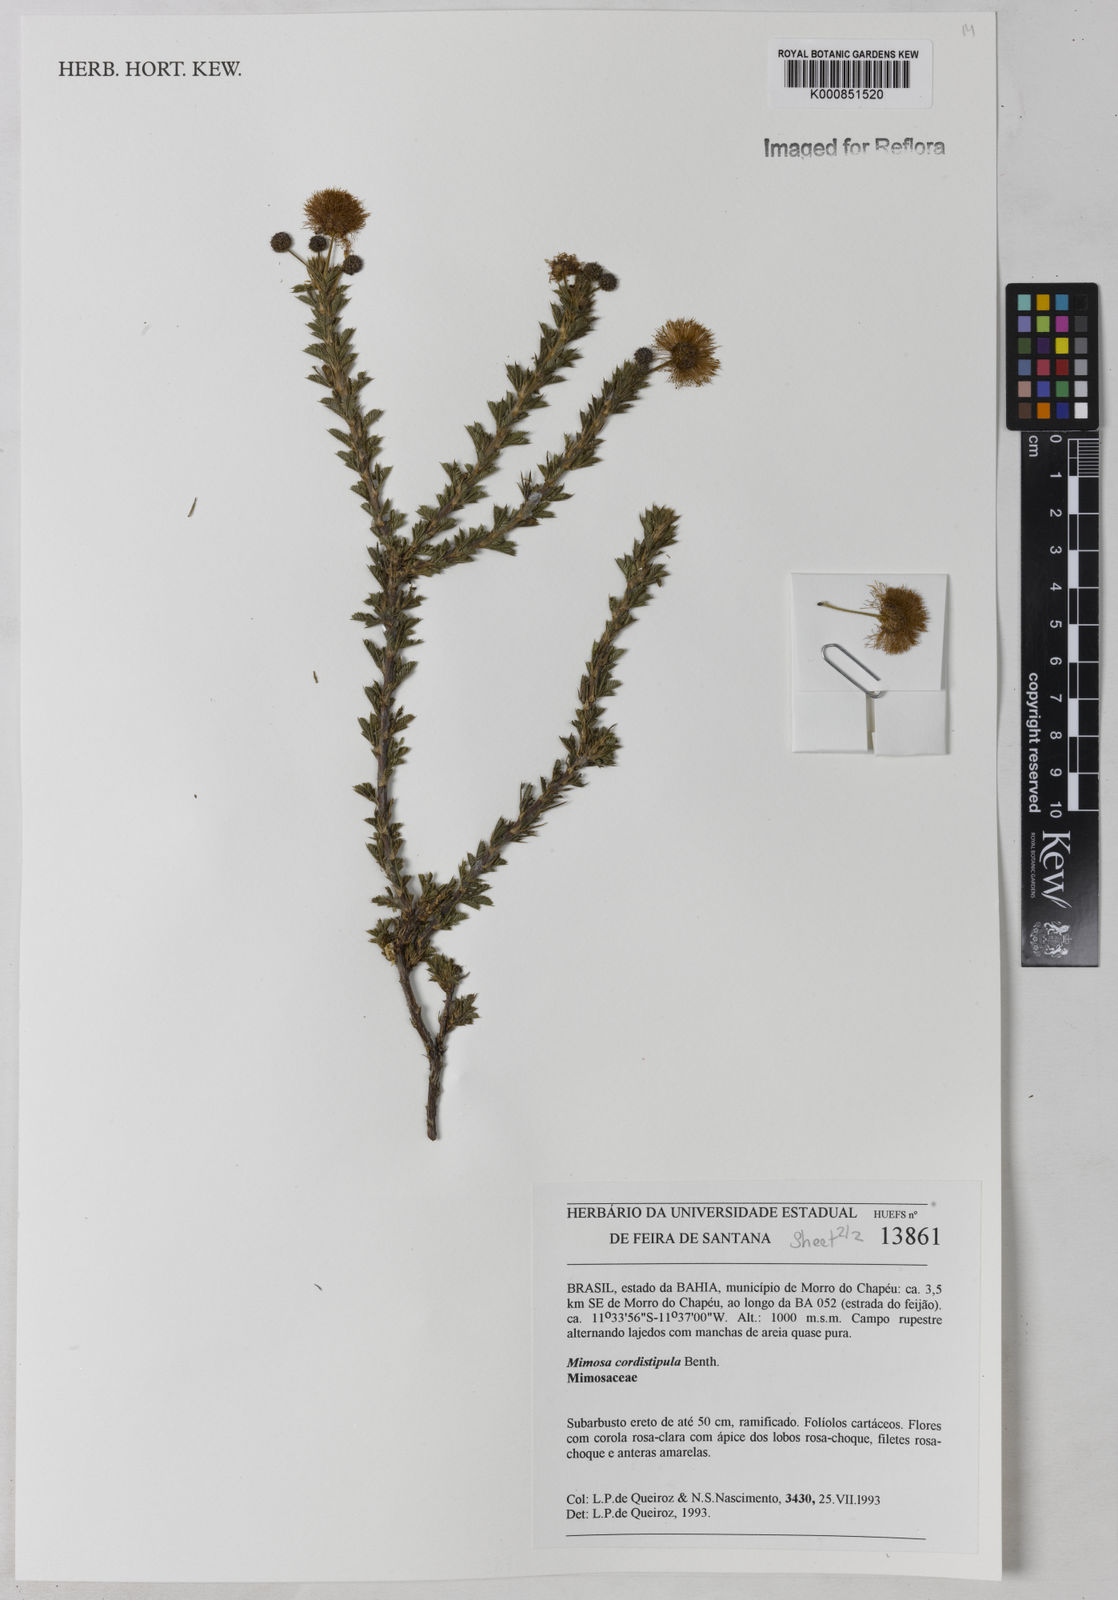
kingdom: Plantae
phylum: Tracheophyta
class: Magnoliopsida
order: Fabales
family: Fabaceae
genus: Mimosa
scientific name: Mimosa cordistipula
